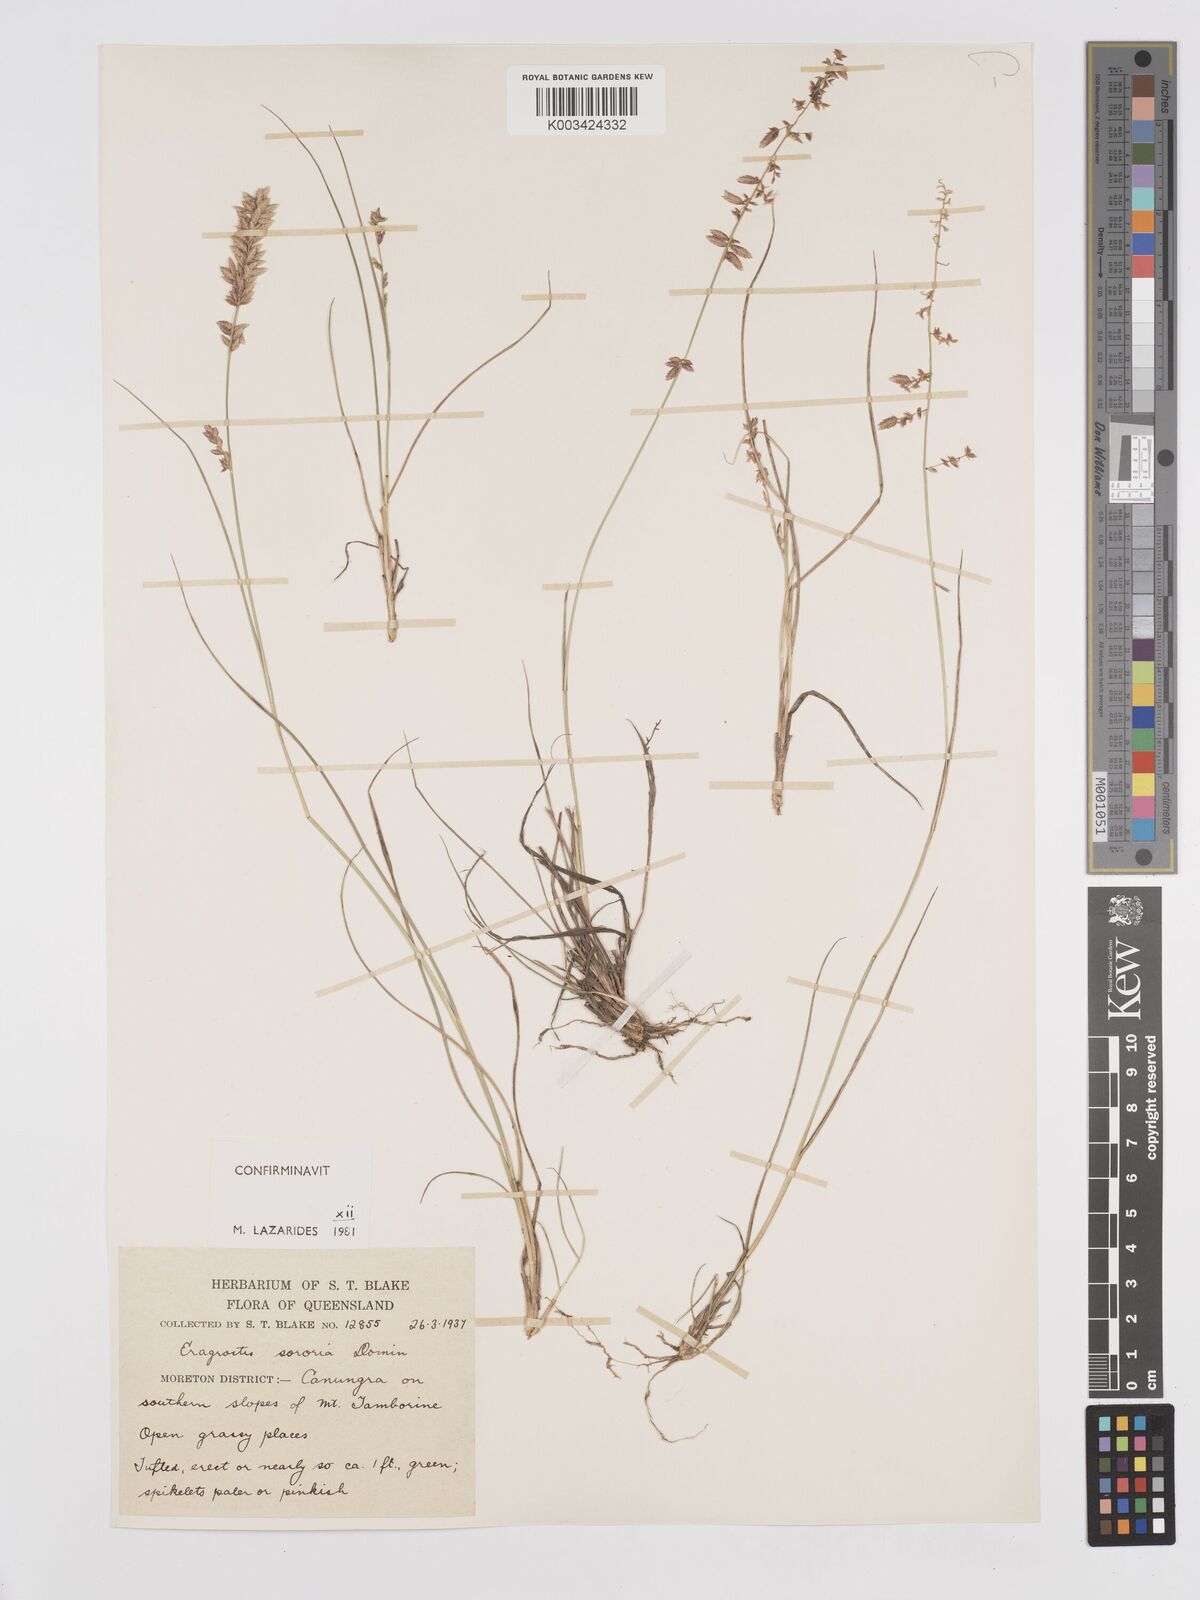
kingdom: Plantae
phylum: Tracheophyta
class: Liliopsida
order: Poales
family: Poaceae
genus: Eragrostis
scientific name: Eragrostis sororia
